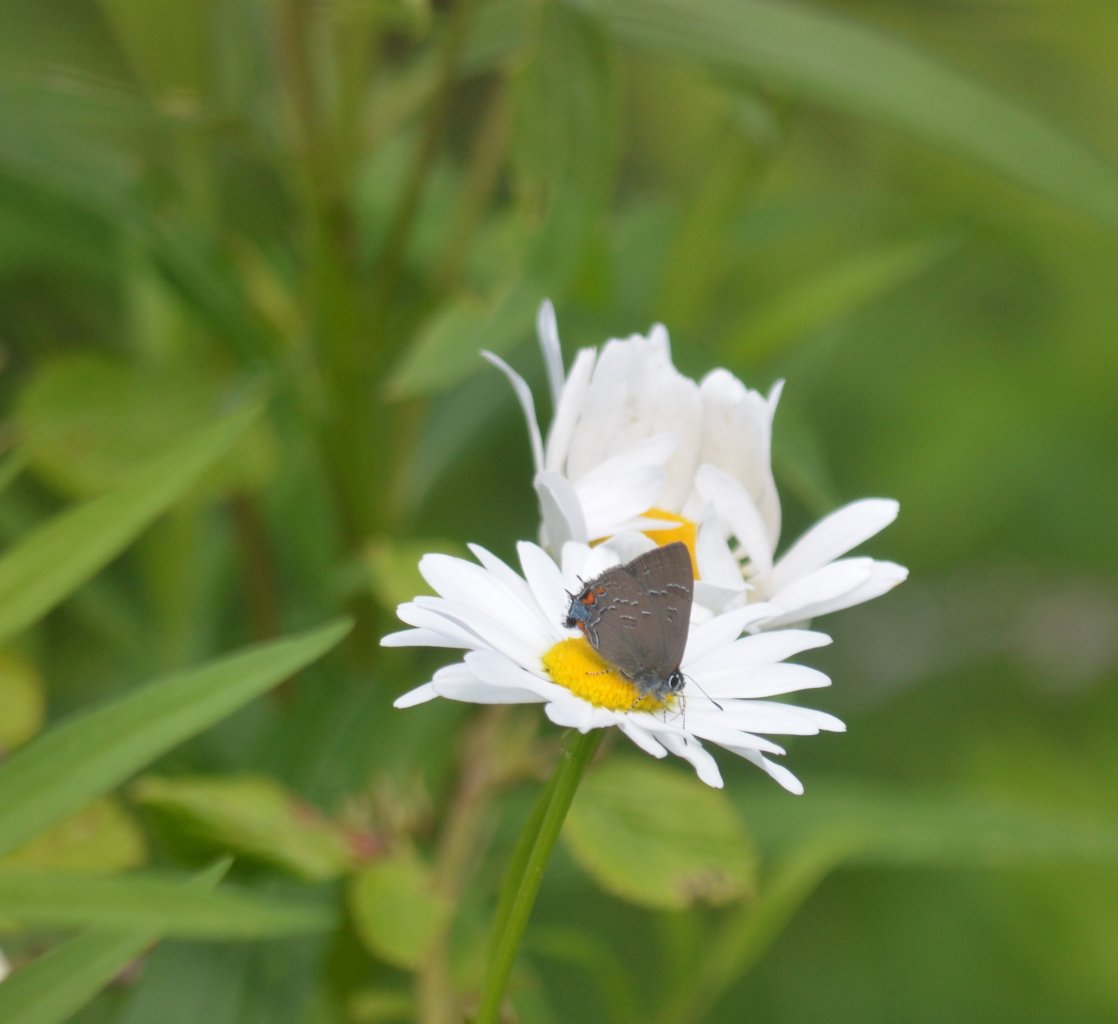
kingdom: Animalia
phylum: Arthropoda
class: Insecta
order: Lepidoptera
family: Lycaenidae
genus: Satyrium
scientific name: Satyrium calanus
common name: Banded Hairstreak
